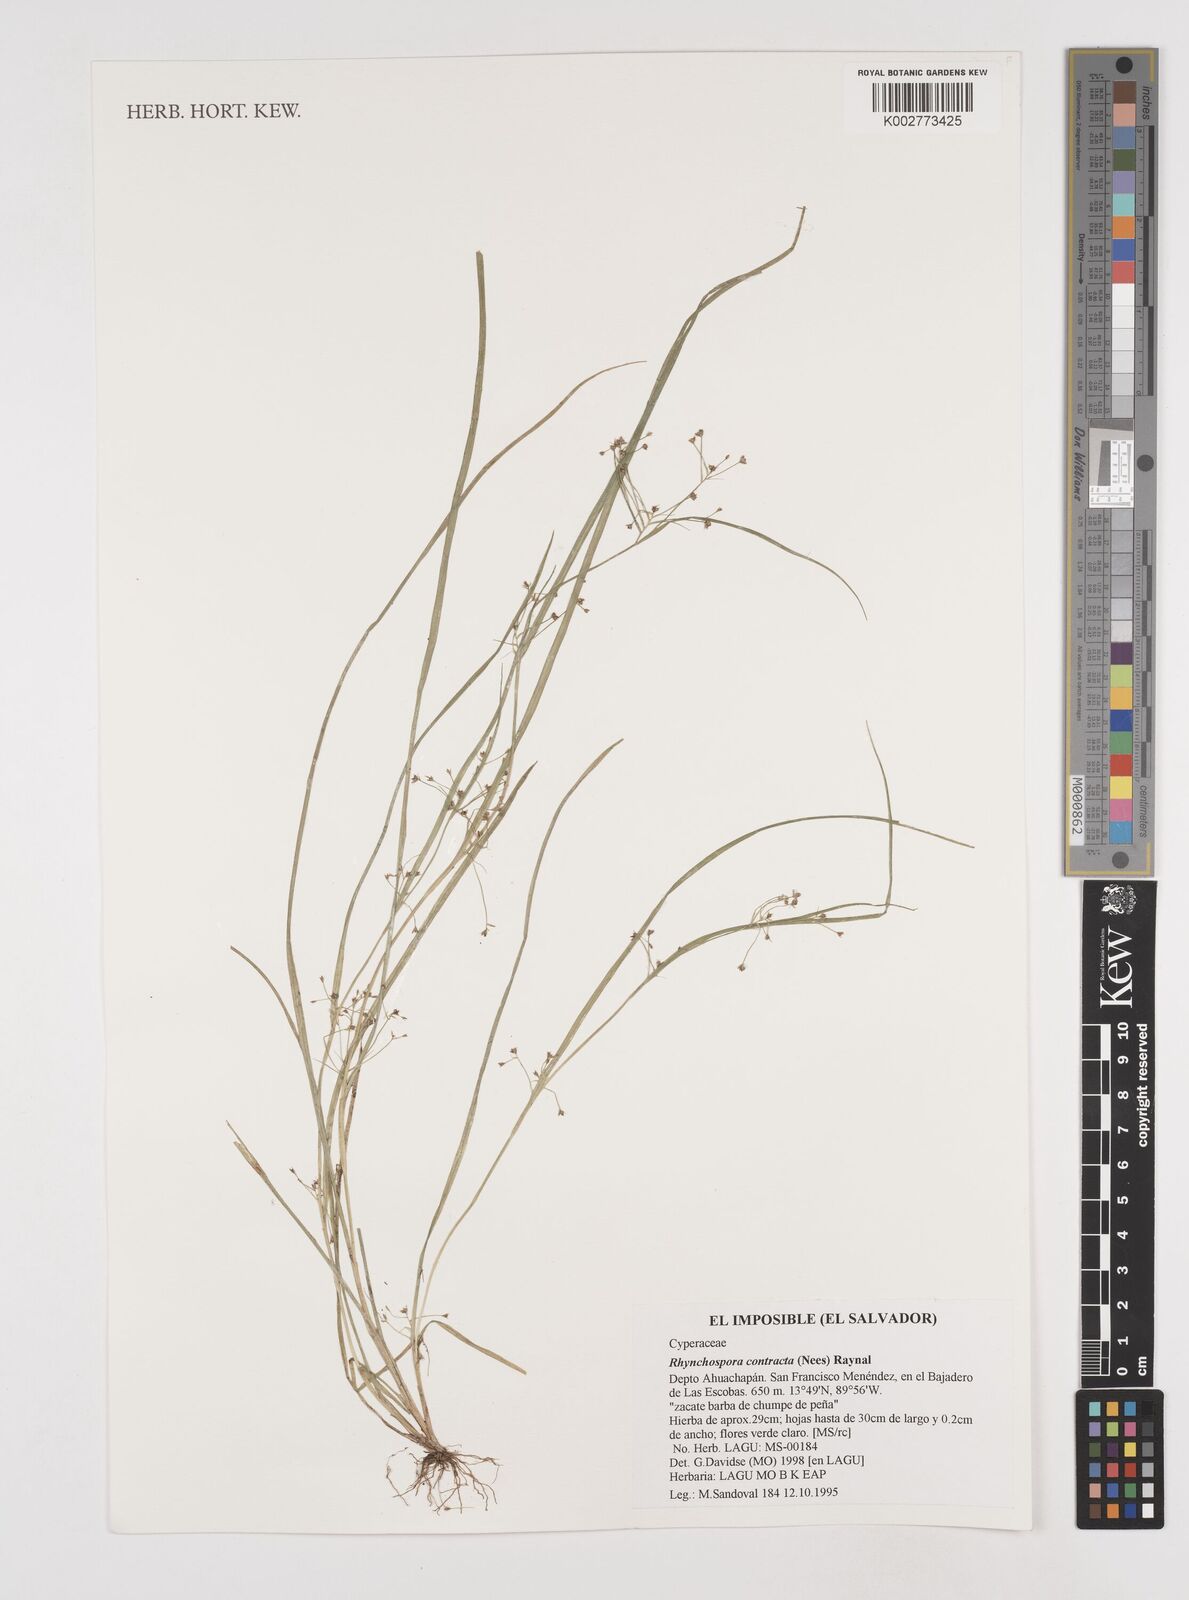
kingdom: Plantae
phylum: Tracheophyta
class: Liliopsida
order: Poales
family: Cyperaceae
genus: Rhynchospora
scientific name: Rhynchospora intermixta
